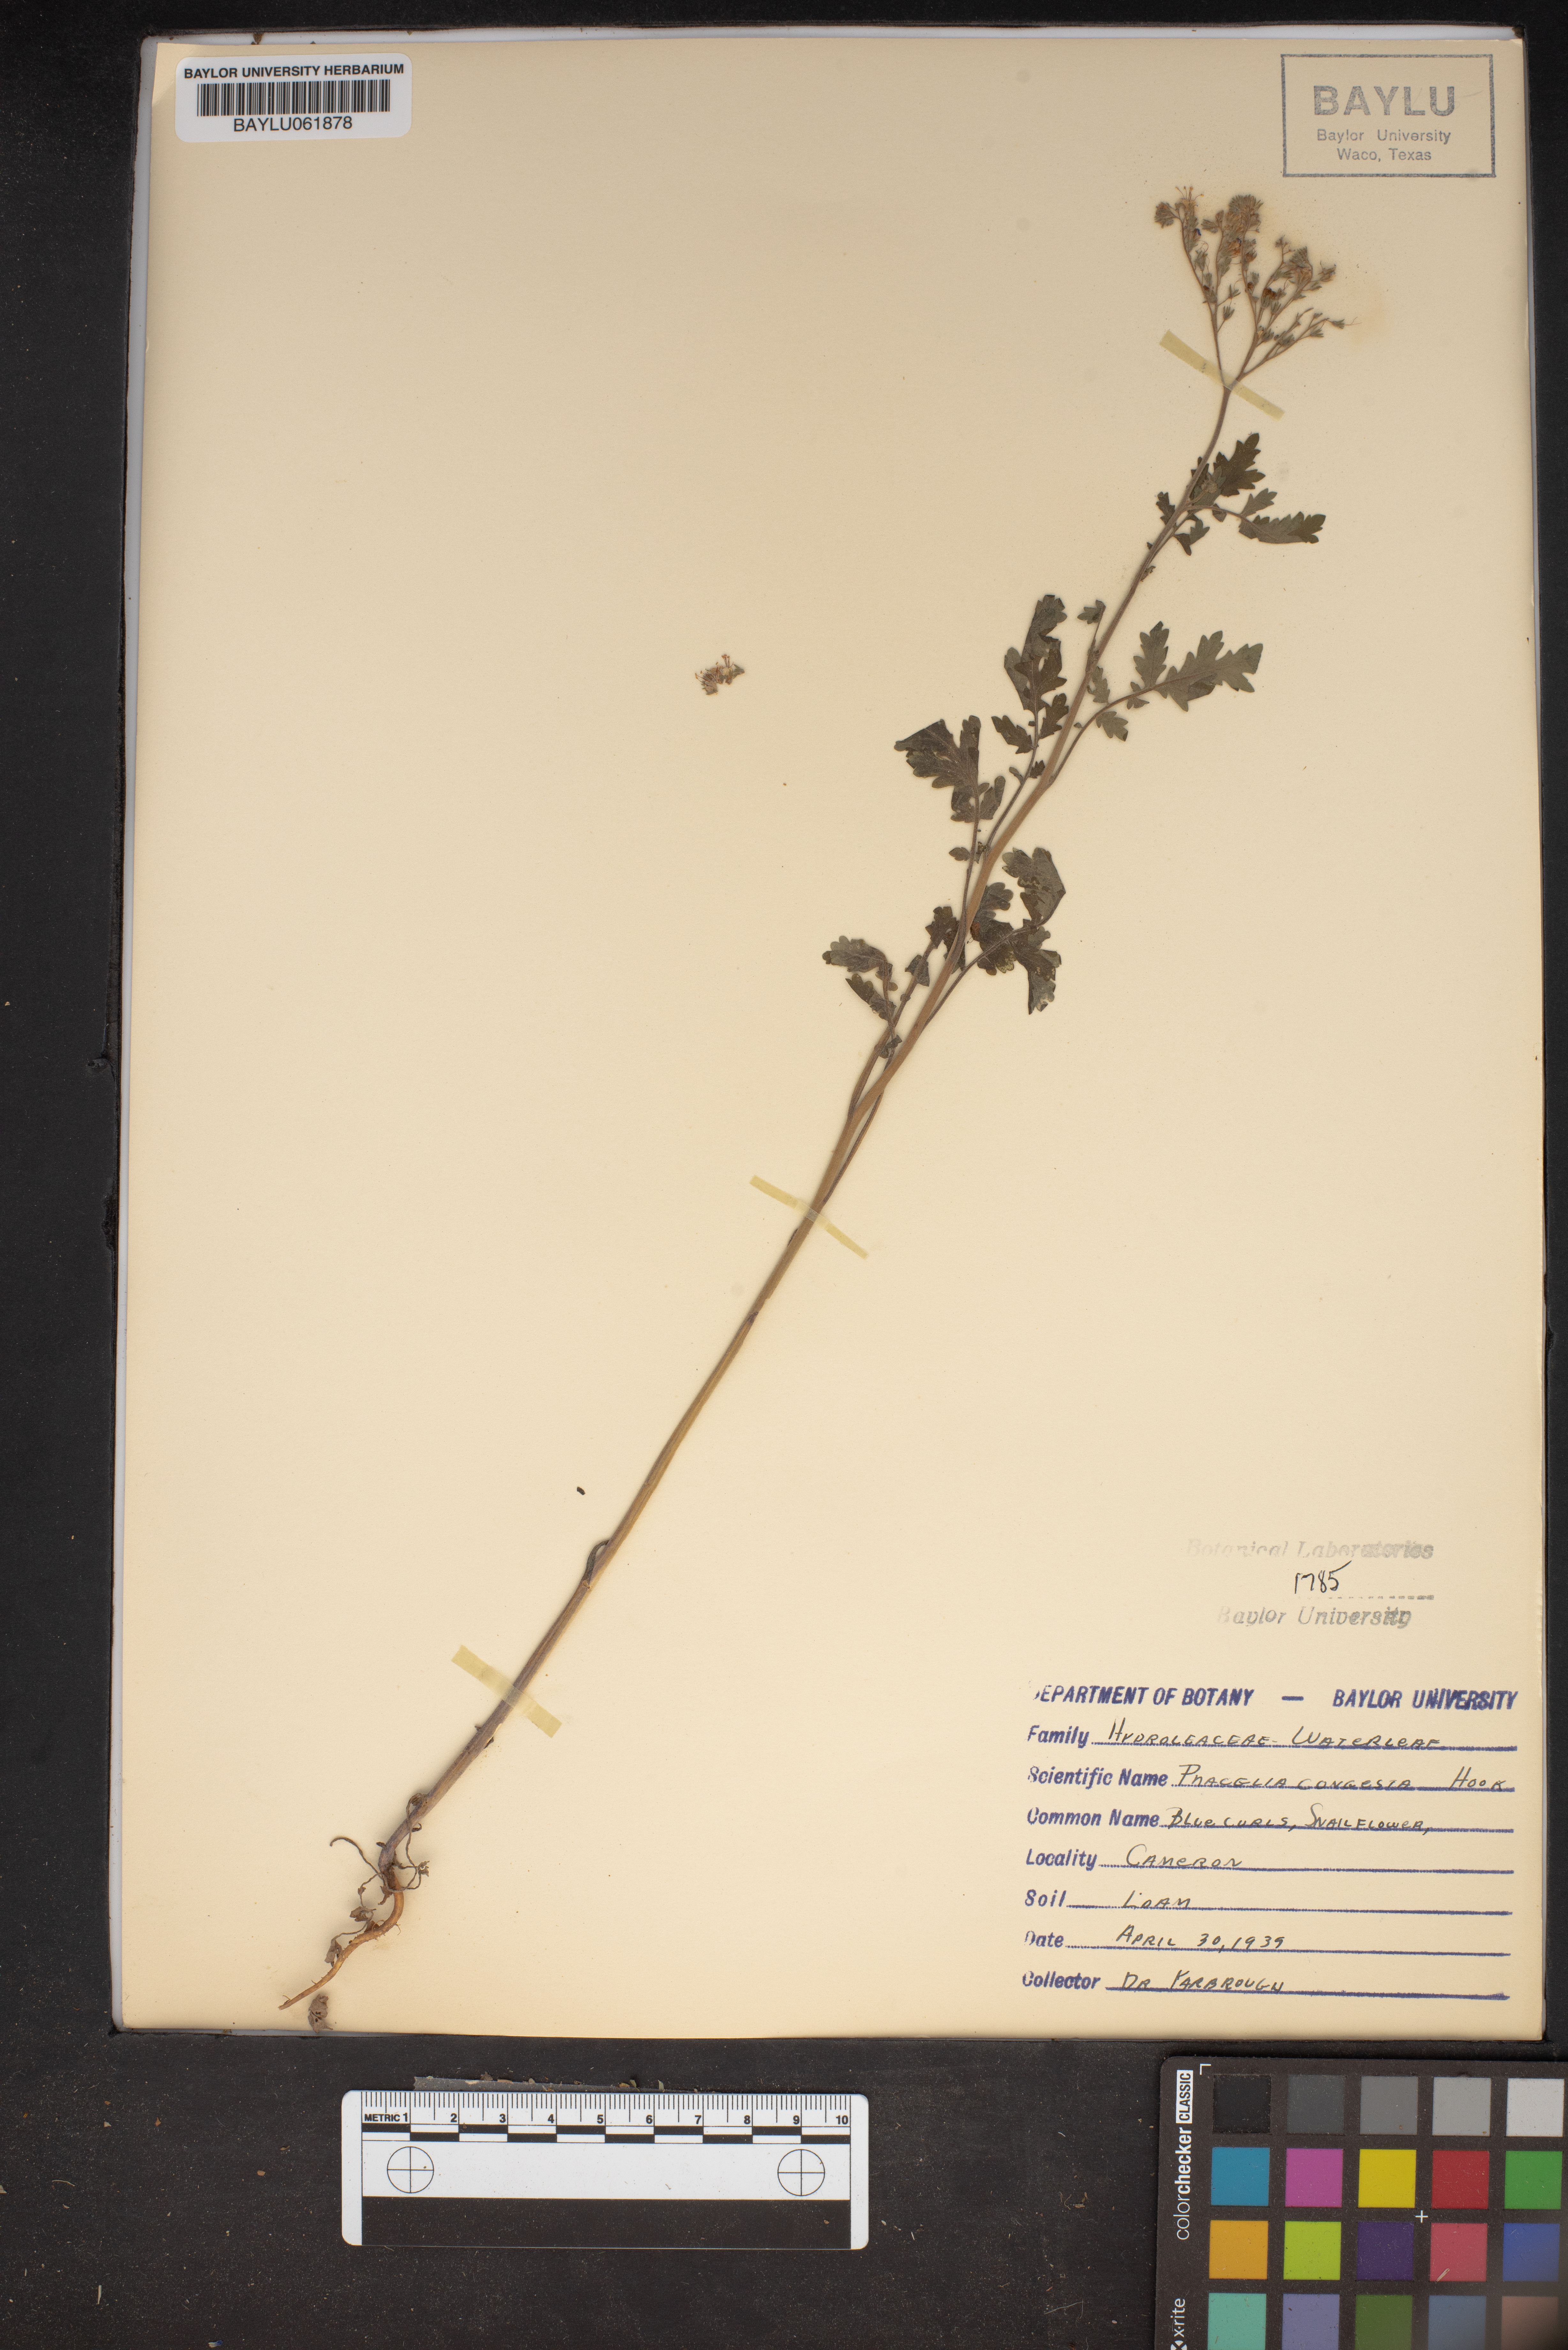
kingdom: Plantae
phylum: Tracheophyta
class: Magnoliopsida
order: Boraginales
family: Hydrophyllaceae
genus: Phacelia
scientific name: Phacelia congesta
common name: Blue curls
